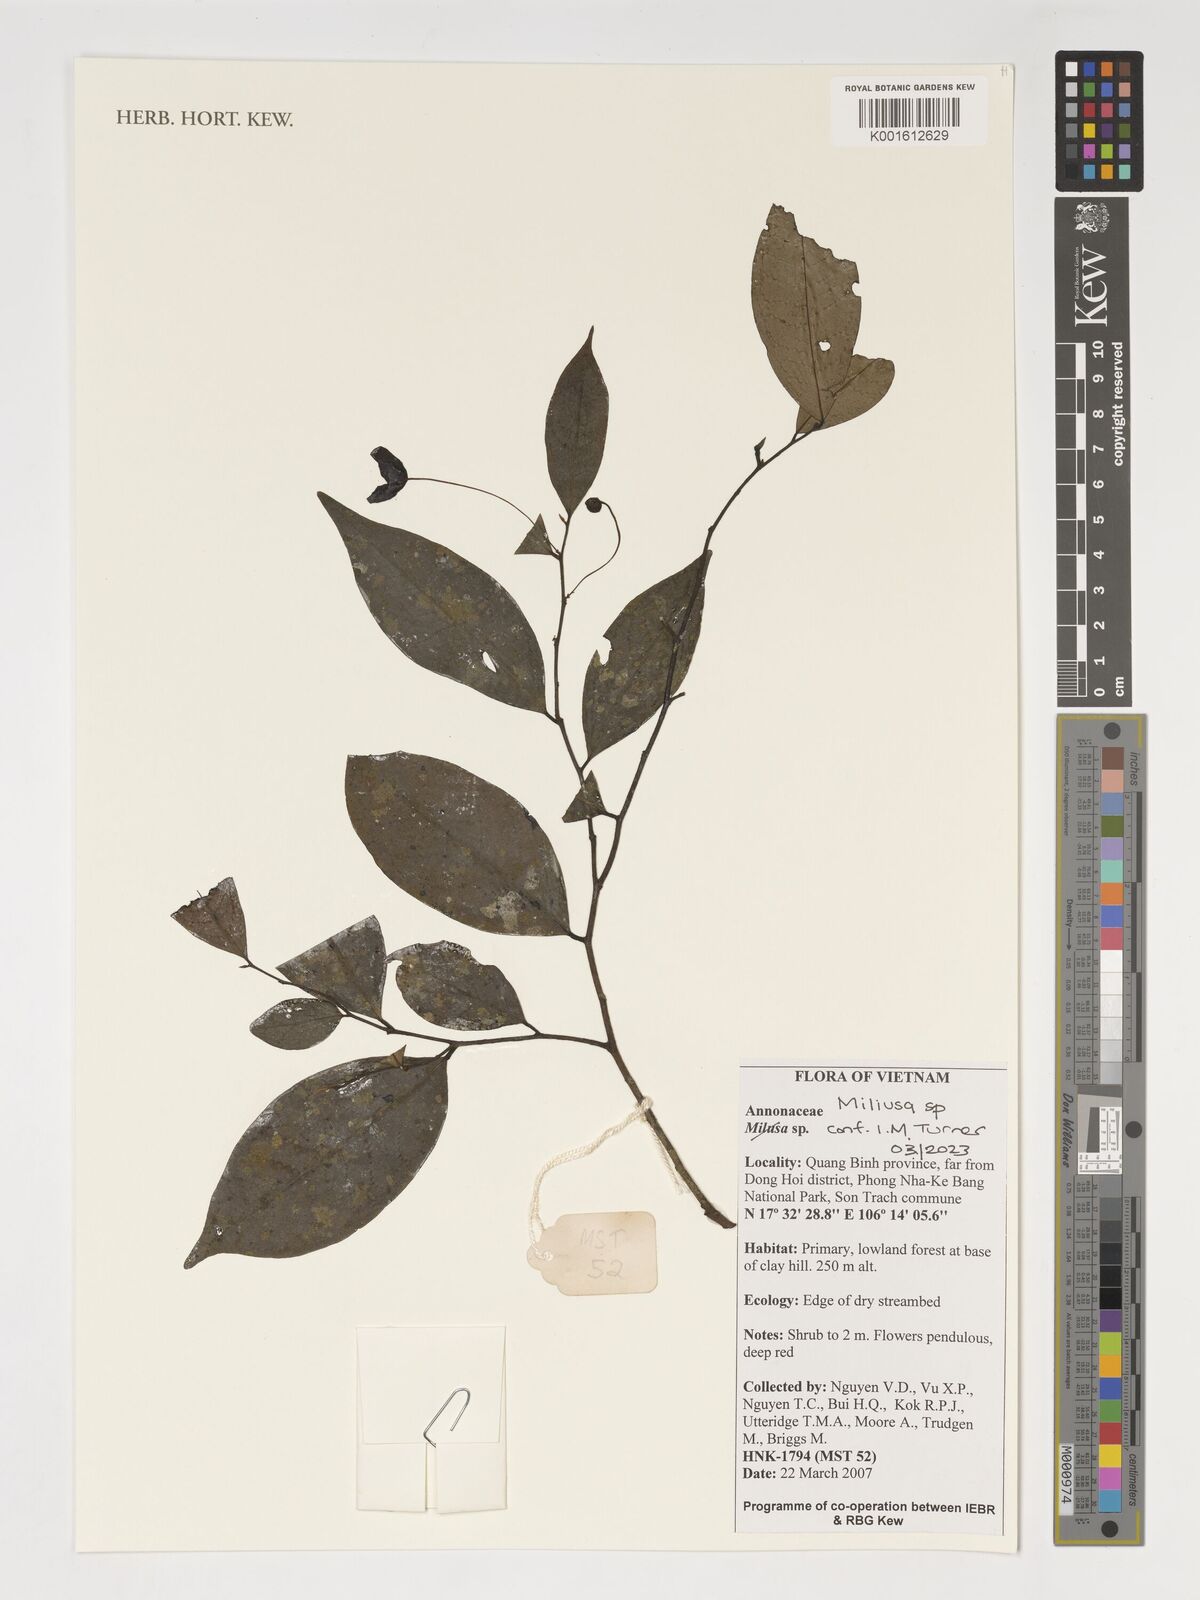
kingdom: Plantae
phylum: Tracheophyta
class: Magnoliopsida
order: Magnoliales
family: Annonaceae
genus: Miliusa
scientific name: Miliusa
